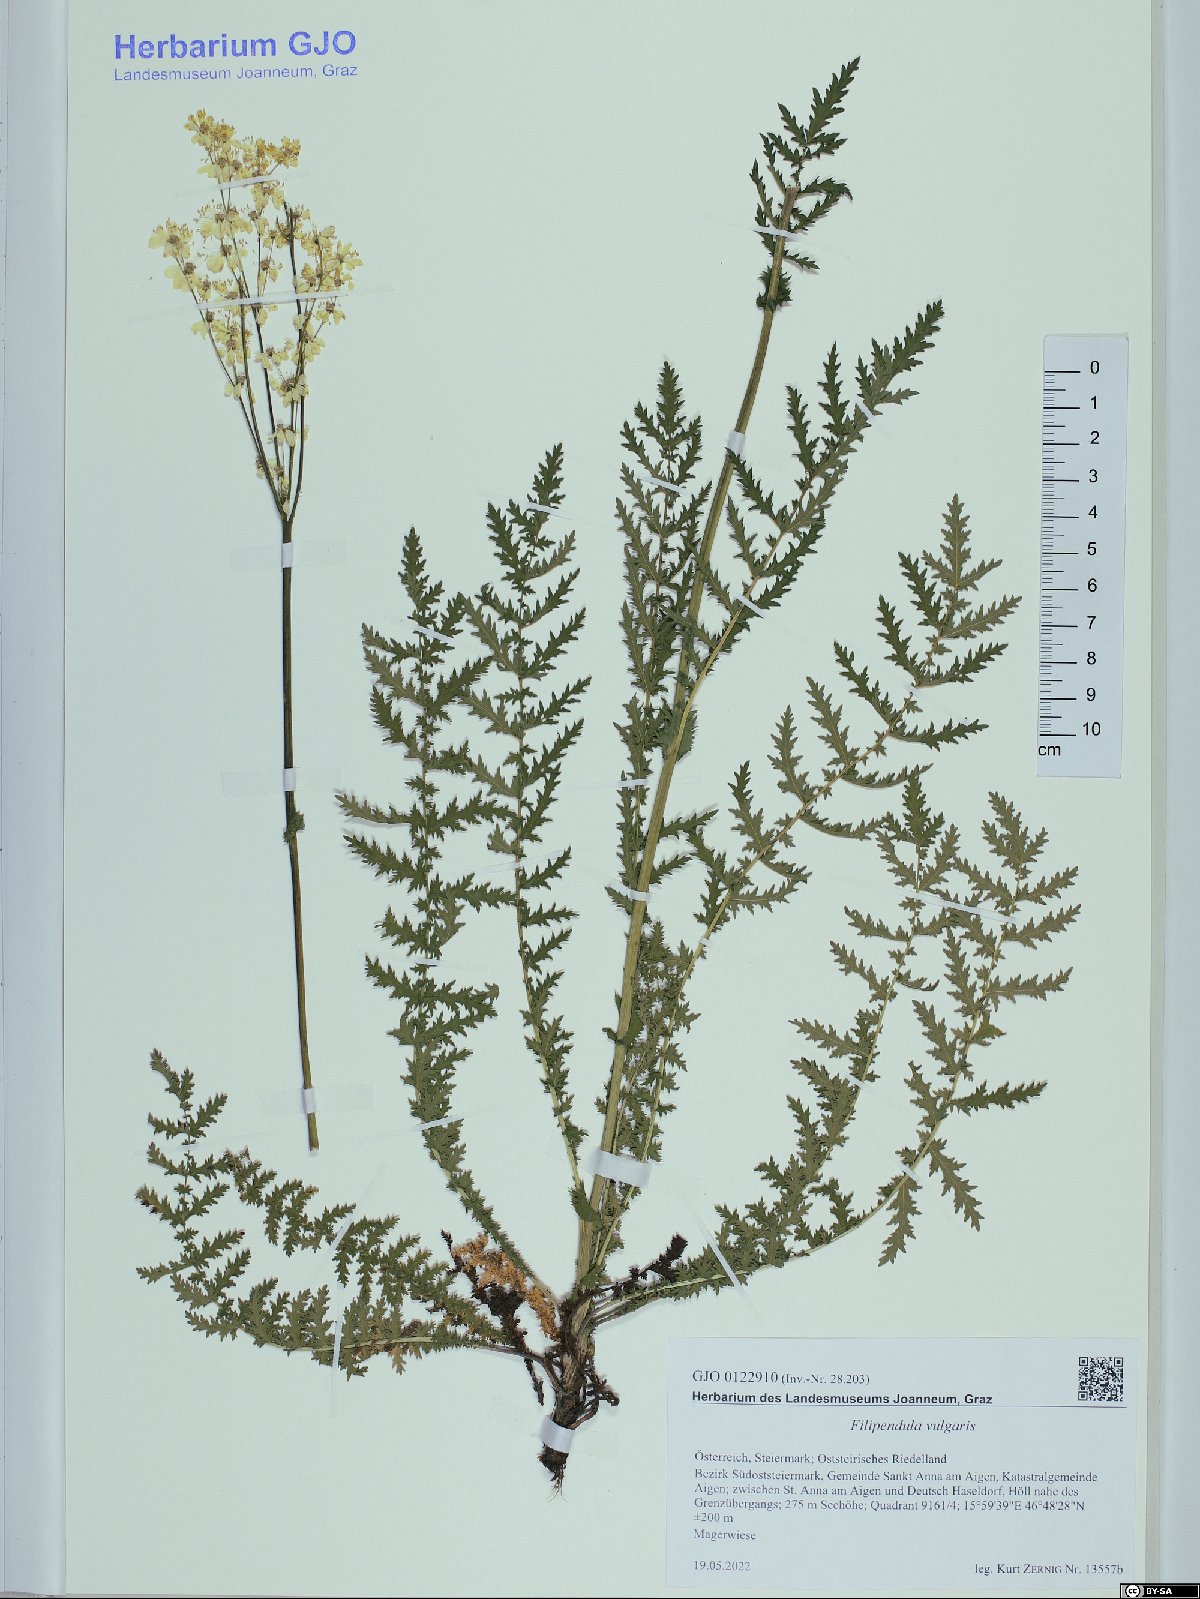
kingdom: Plantae
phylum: Tracheophyta
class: Magnoliopsida
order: Rosales
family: Rosaceae
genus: Filipendula
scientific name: Filipendula vulgaris
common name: Dropwort
